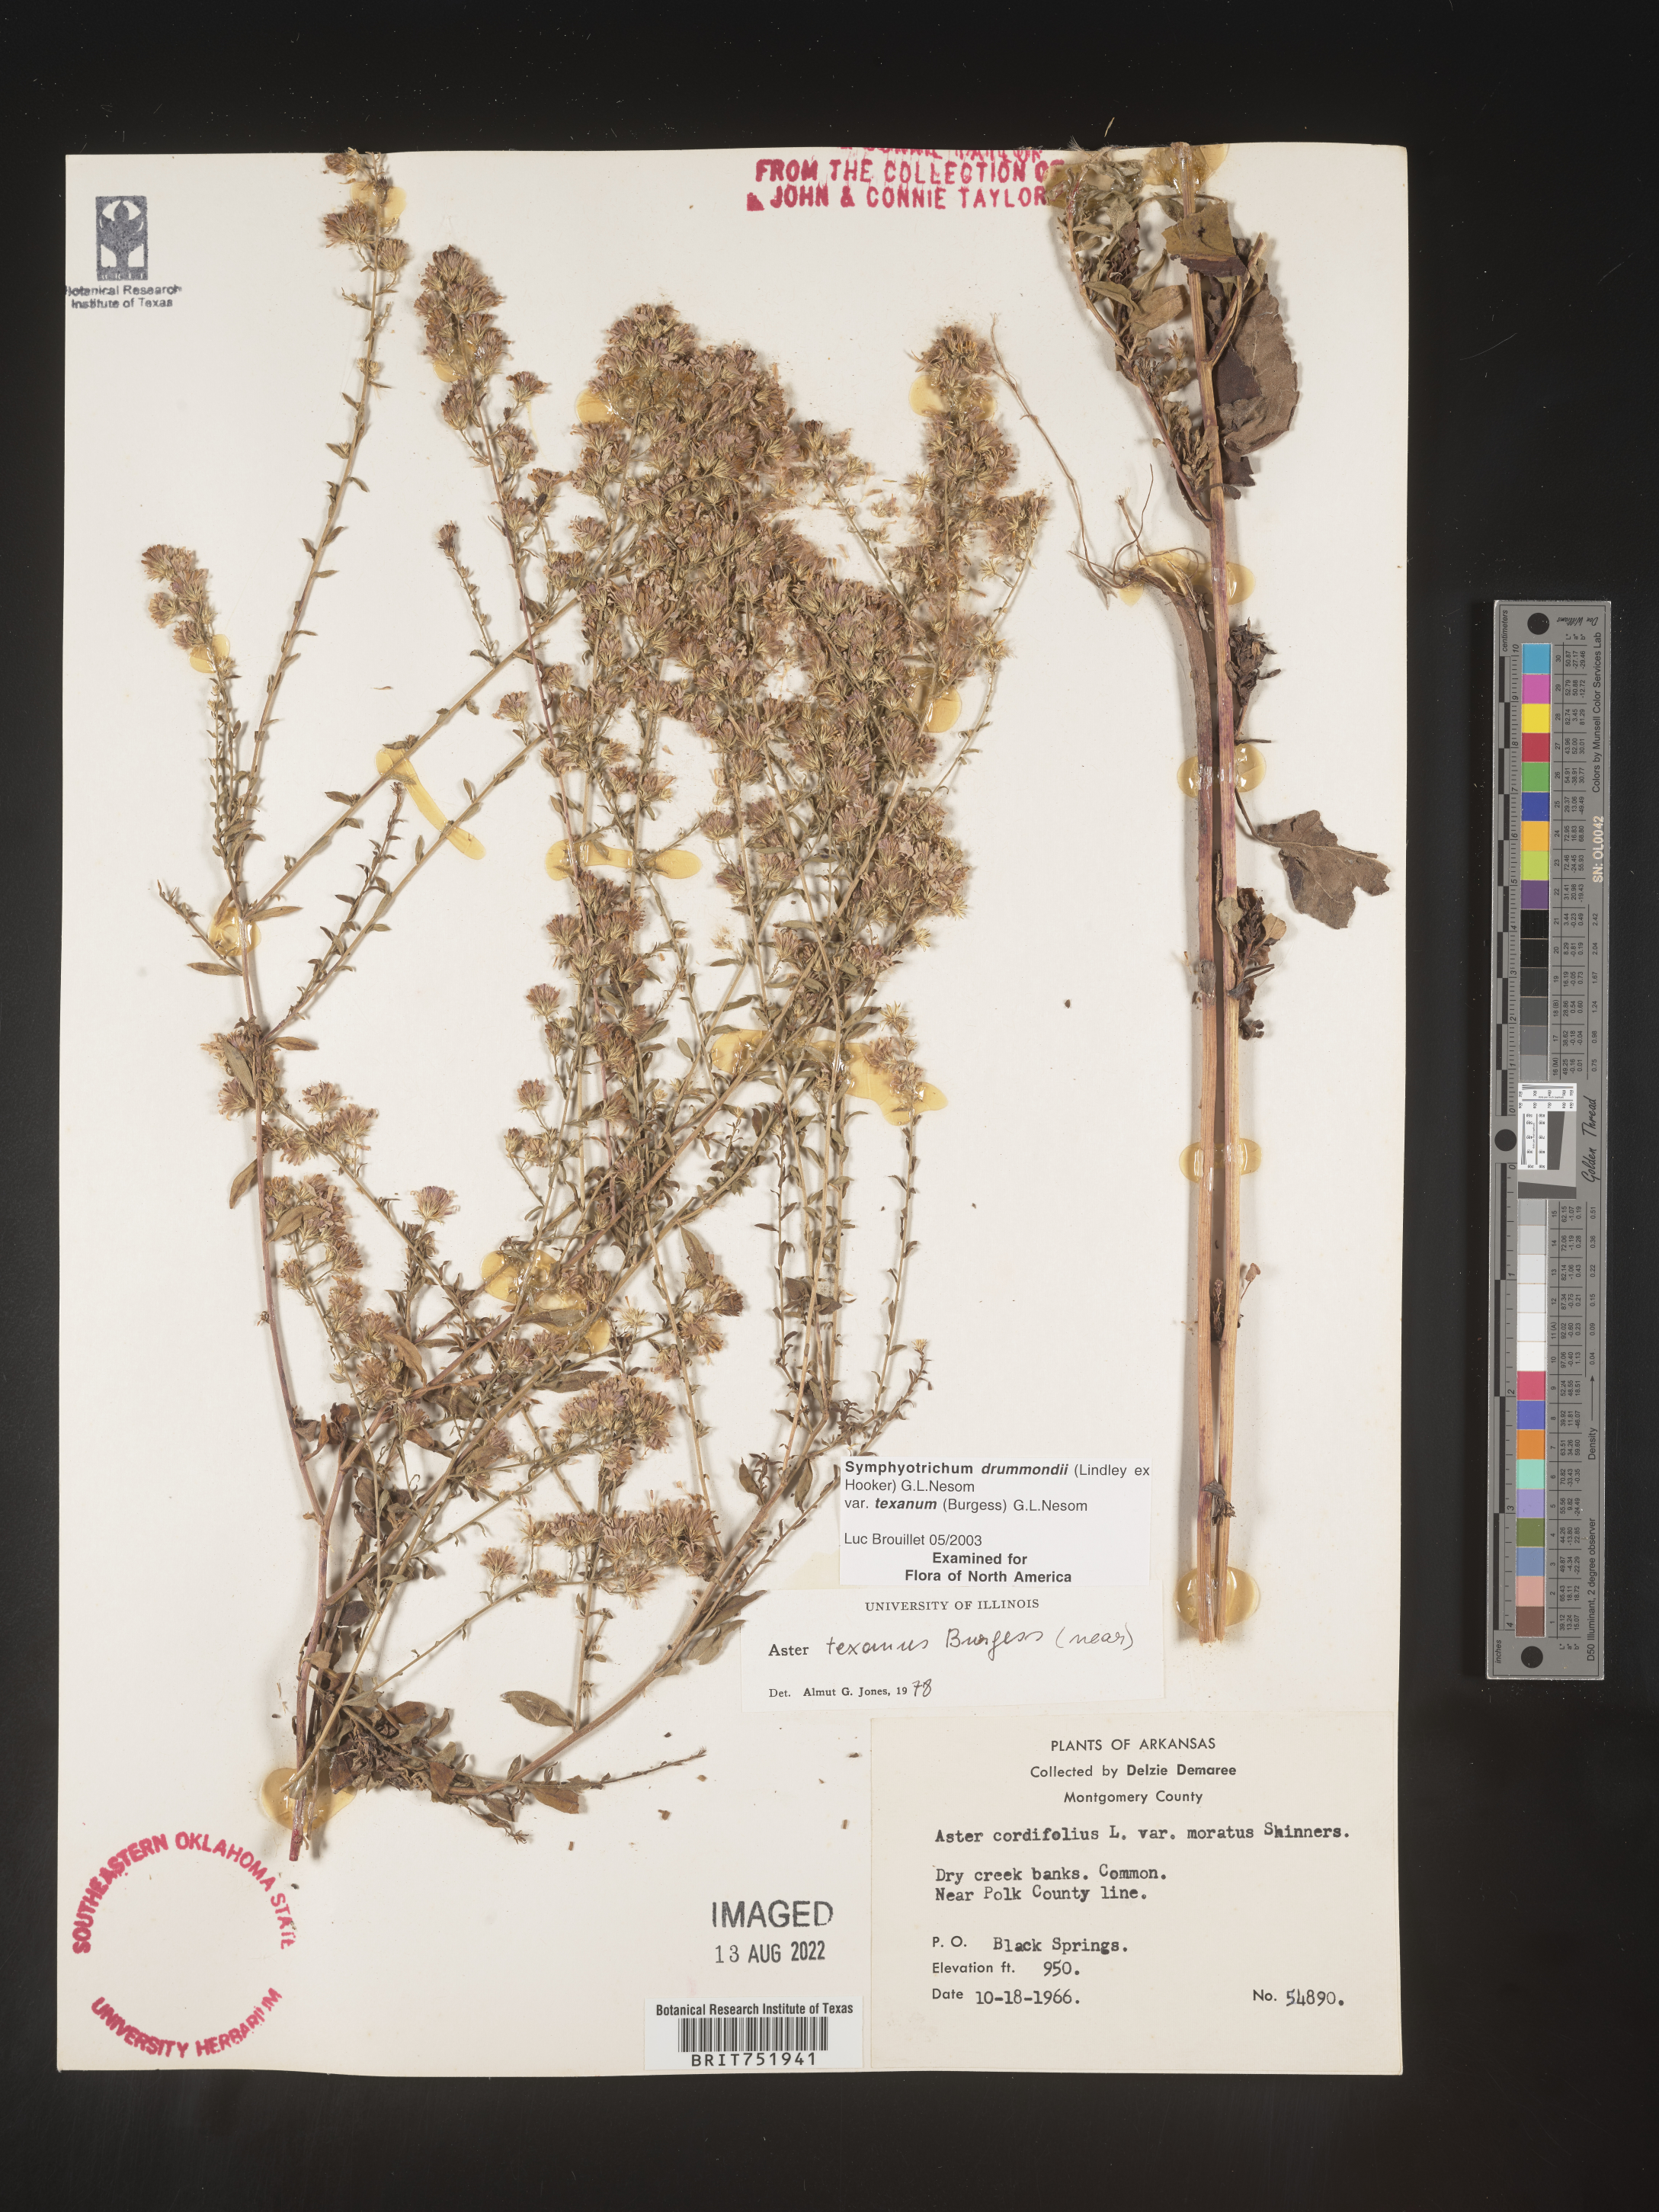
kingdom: Plantae
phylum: Tracheophyta
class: Magnoliopsida
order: Asterales
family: Asteraceae
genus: Symphyotrichum
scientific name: Symphyotrichum drummondii
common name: Drummond's aster
